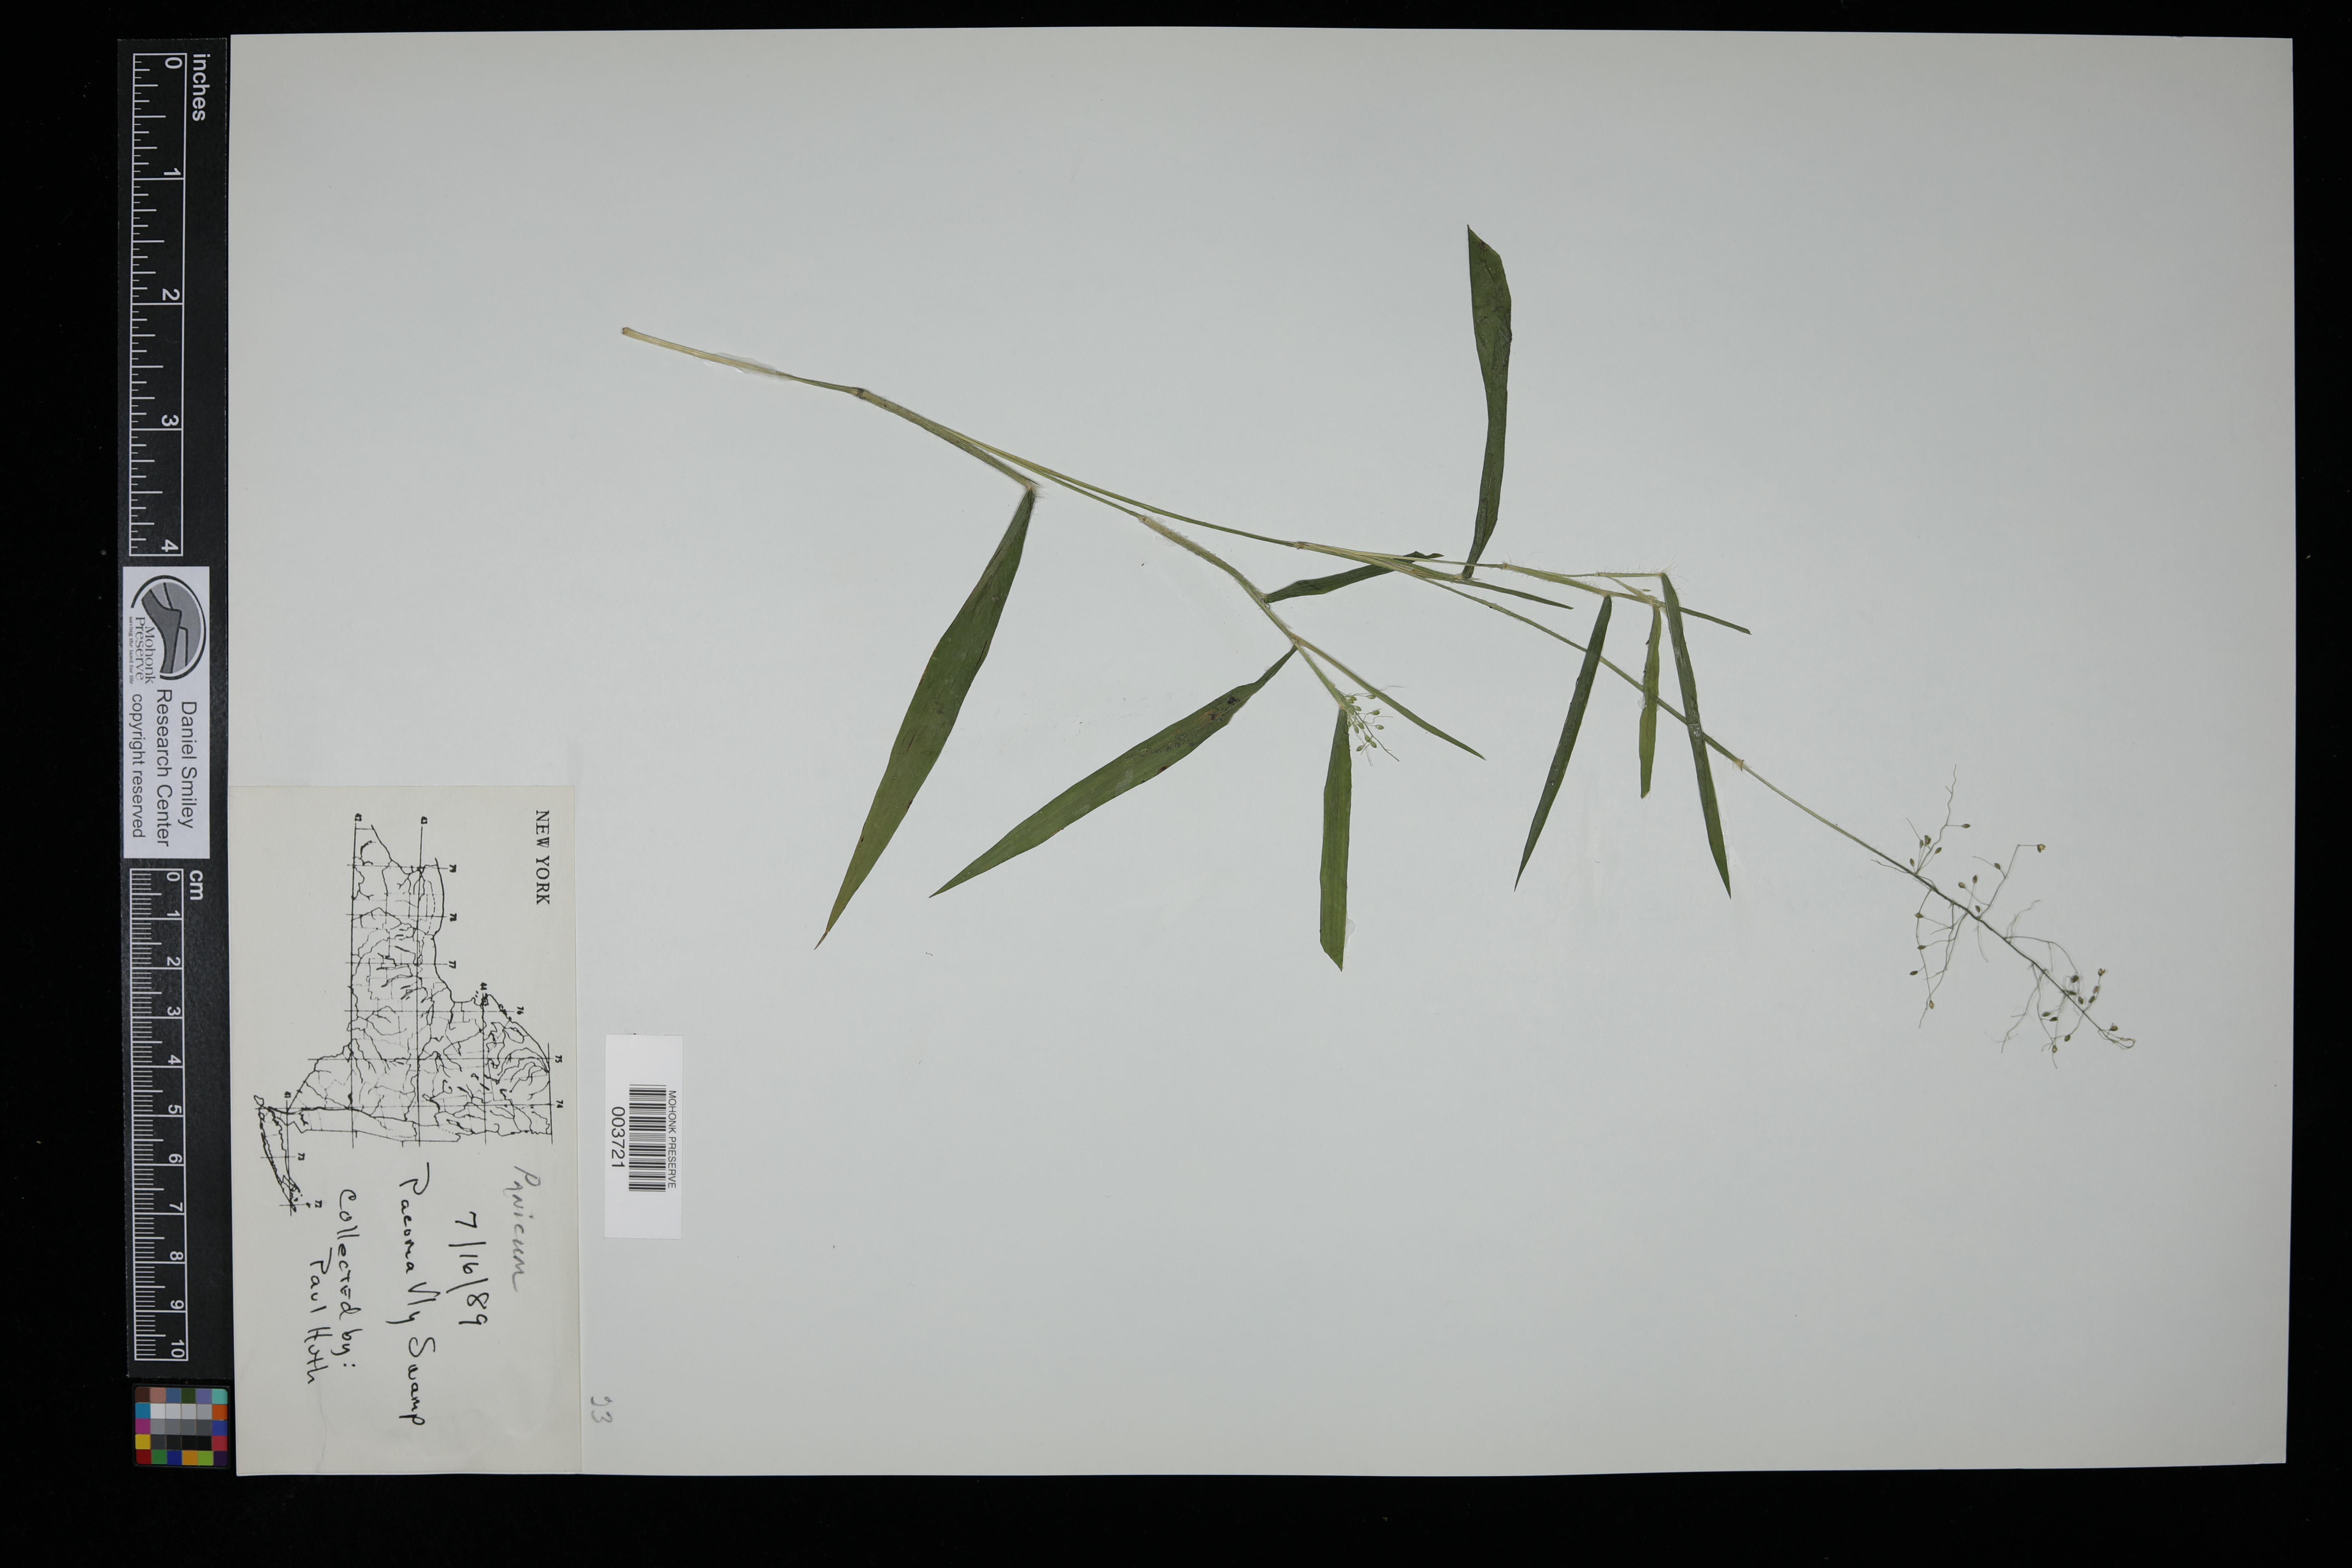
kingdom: Plantae
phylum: Tracheophyta
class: Liliopsida
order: Poales
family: Poaceae
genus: Panicum
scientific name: Panicum
